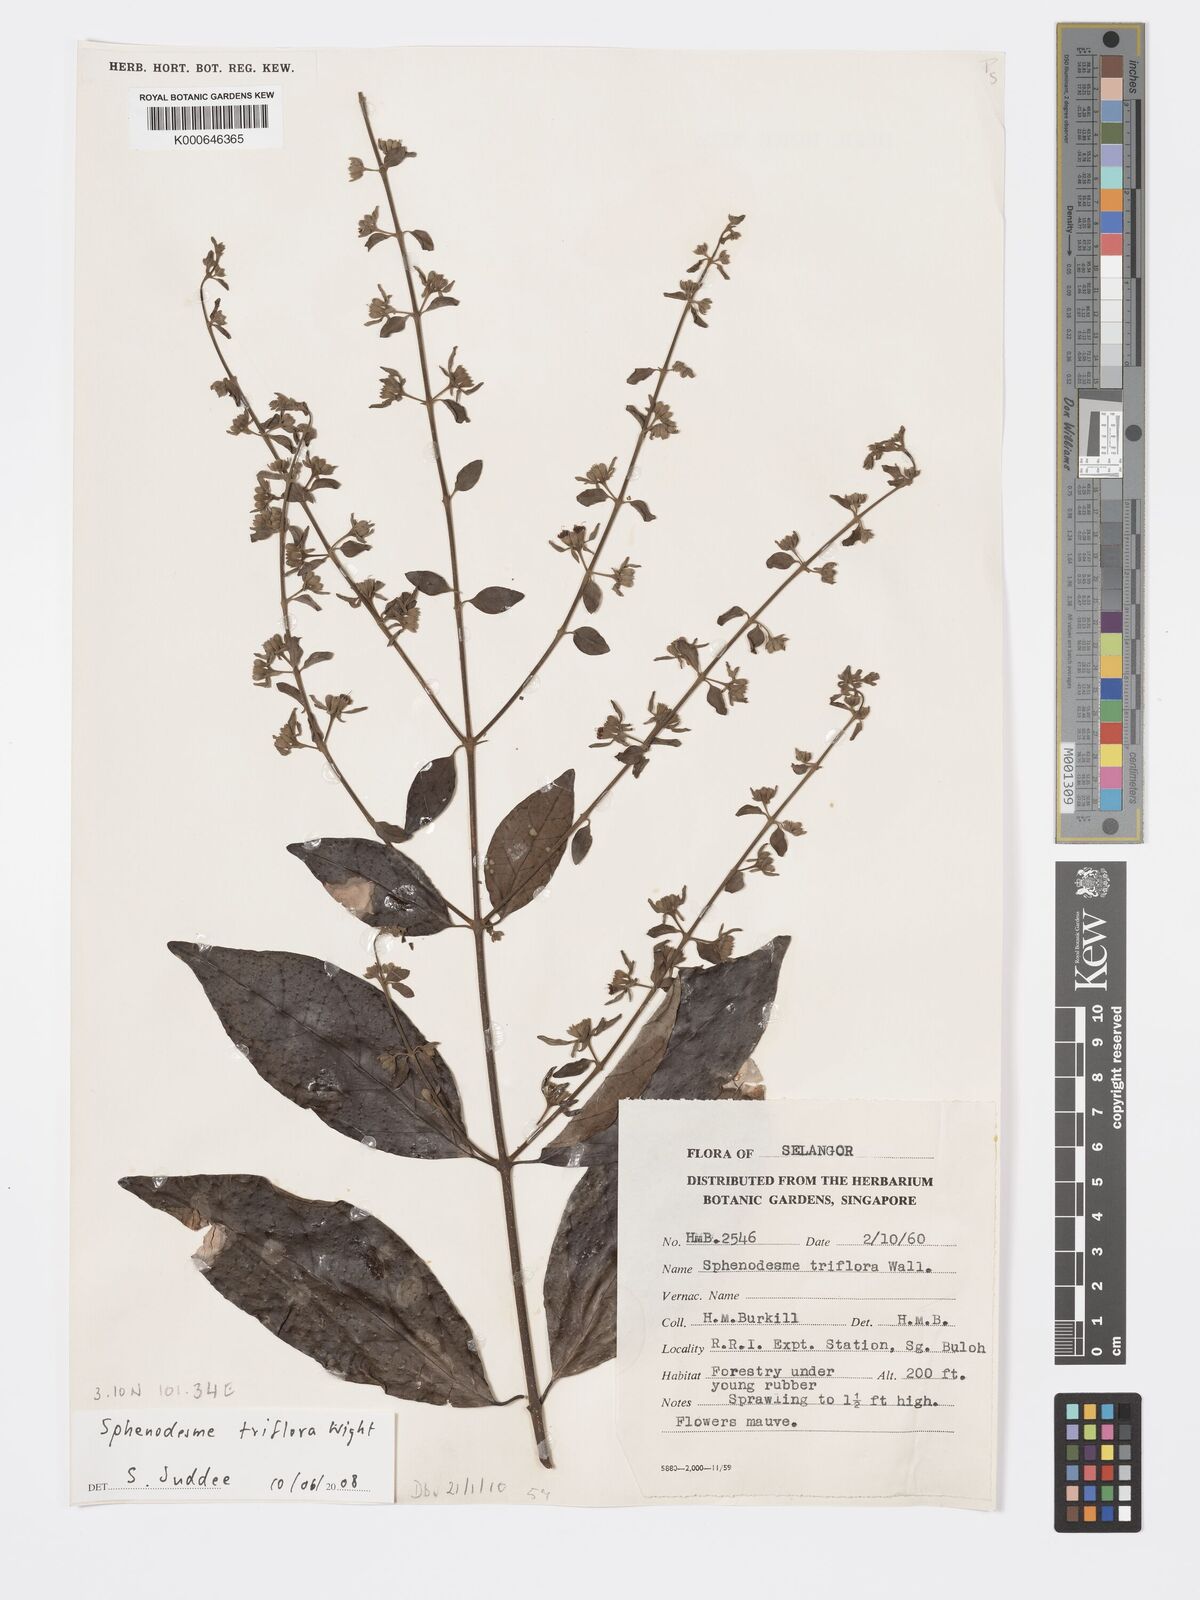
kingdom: Plantae
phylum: Tracheophyta
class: Magnoliopsida
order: Lamiales
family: Lamiaceae
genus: Sphenodesme
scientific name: Sphenodesme
